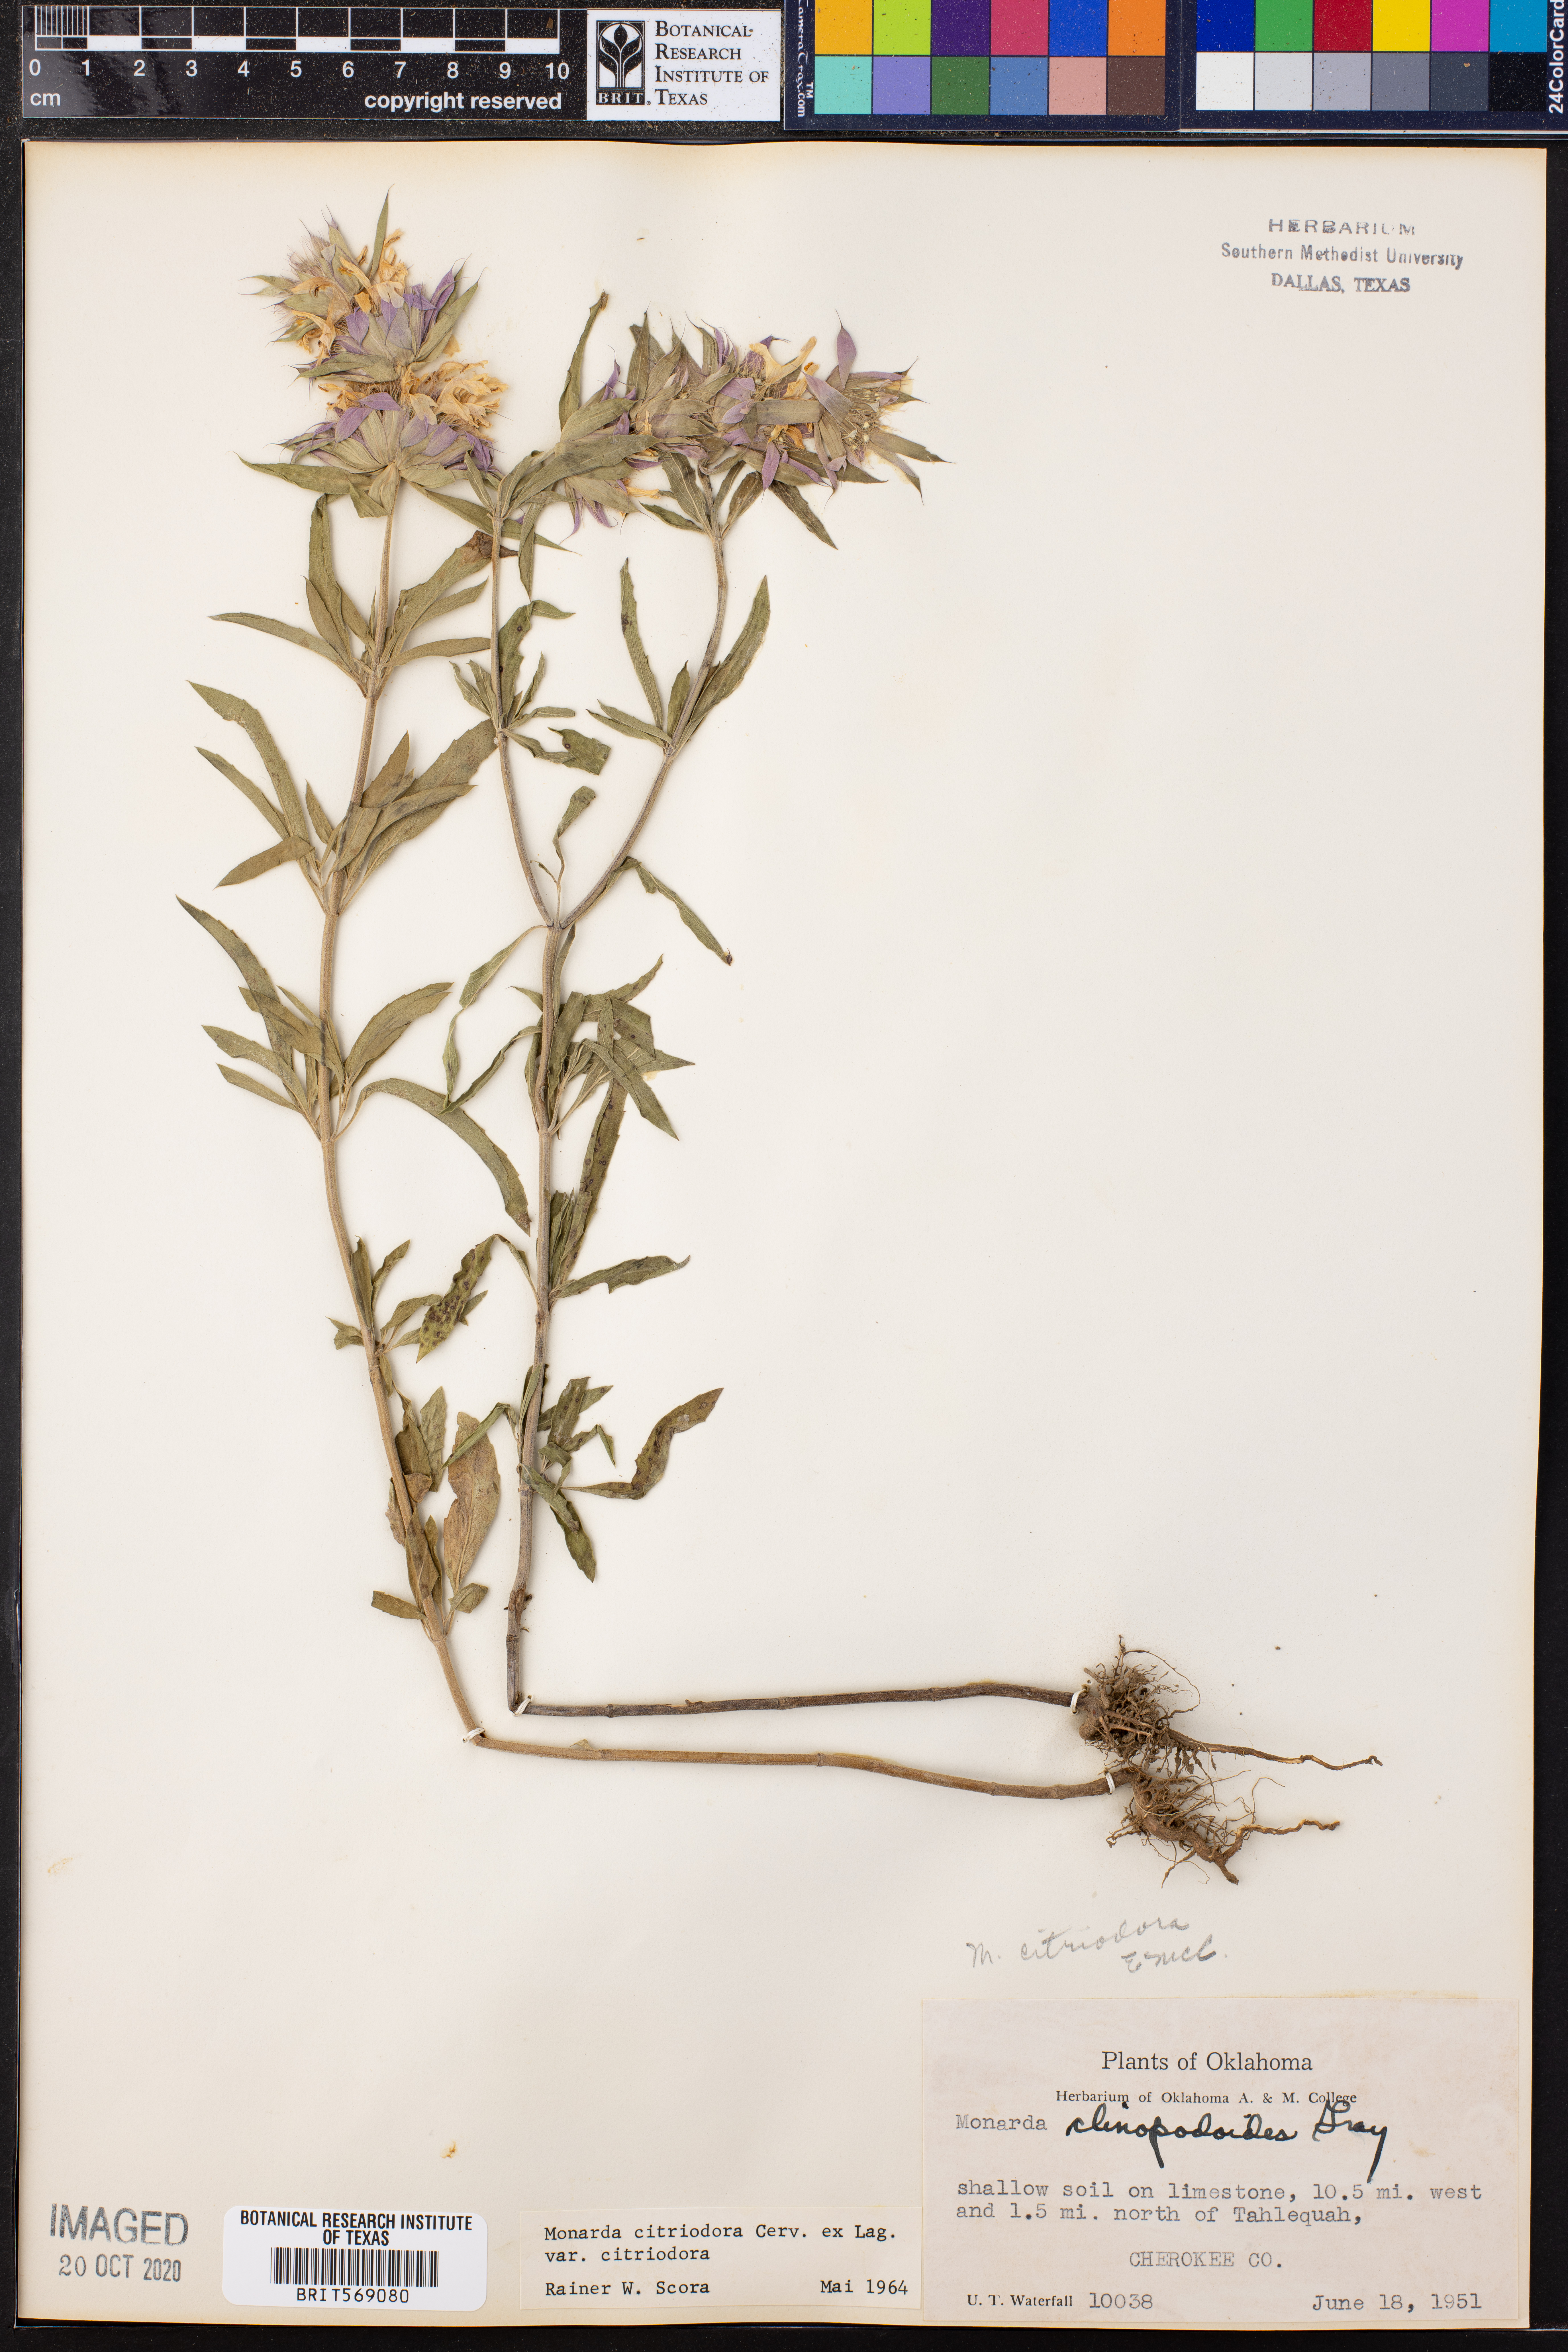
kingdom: Plantae
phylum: Tracheophyta
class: Magnoliopsida
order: Lamiales
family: Lamiaceae
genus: Monarda
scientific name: Monarda citriodora
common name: Lemon beebalm
